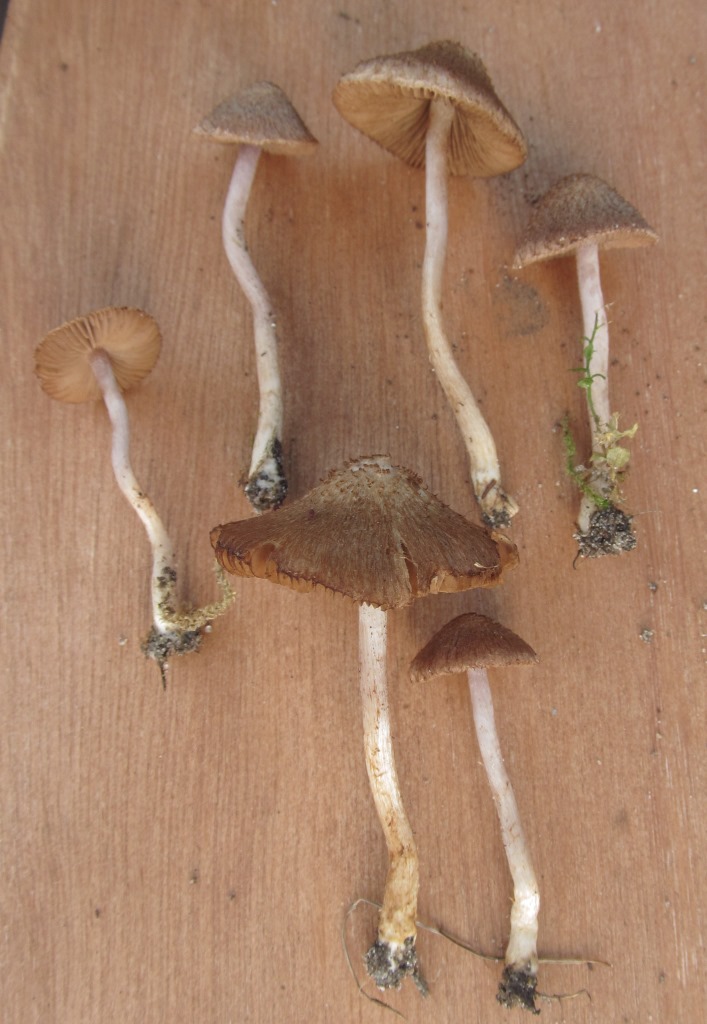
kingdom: Fungi
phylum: Basidiomycota
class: Agaricomycetes
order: Agaricales
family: Inocybaceae
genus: Inocybe
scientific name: Inocybe cincinnata
